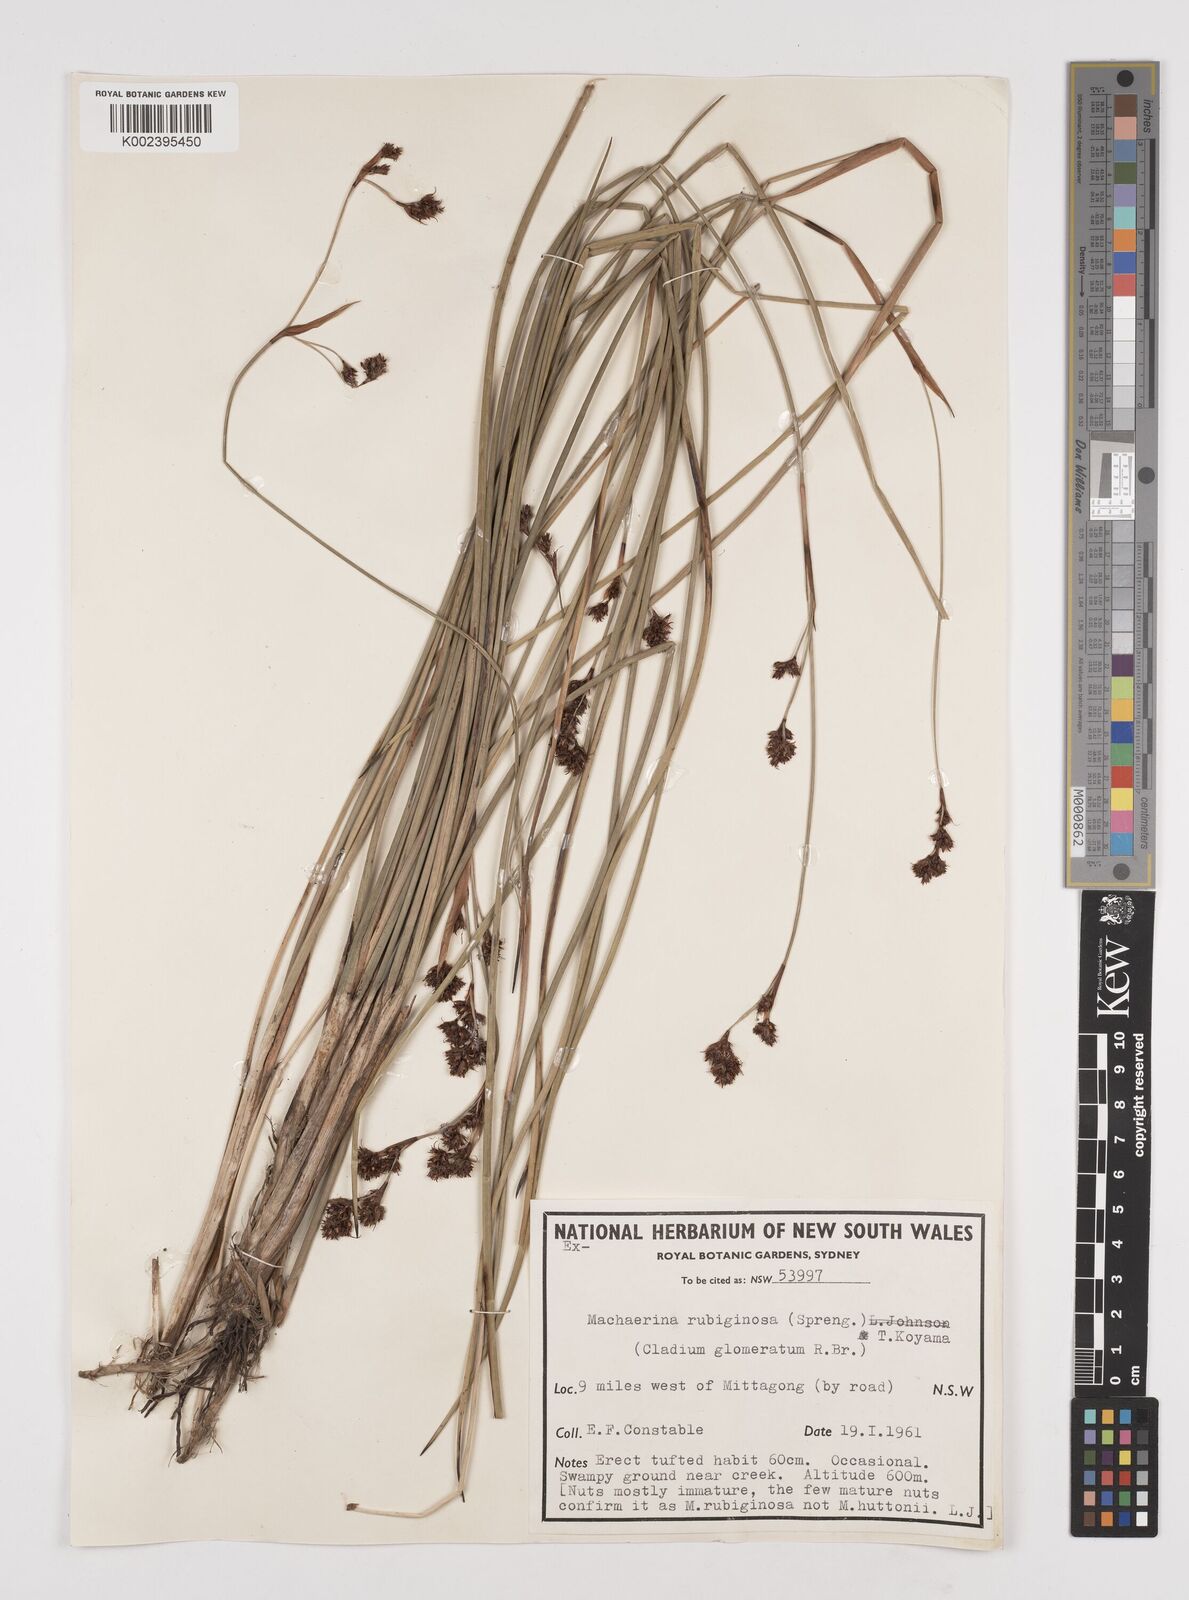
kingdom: Plantae
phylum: Tracheophyta
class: Liliopsida
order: Poales
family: Cyperaceae
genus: Machaerina
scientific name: Machaerina
